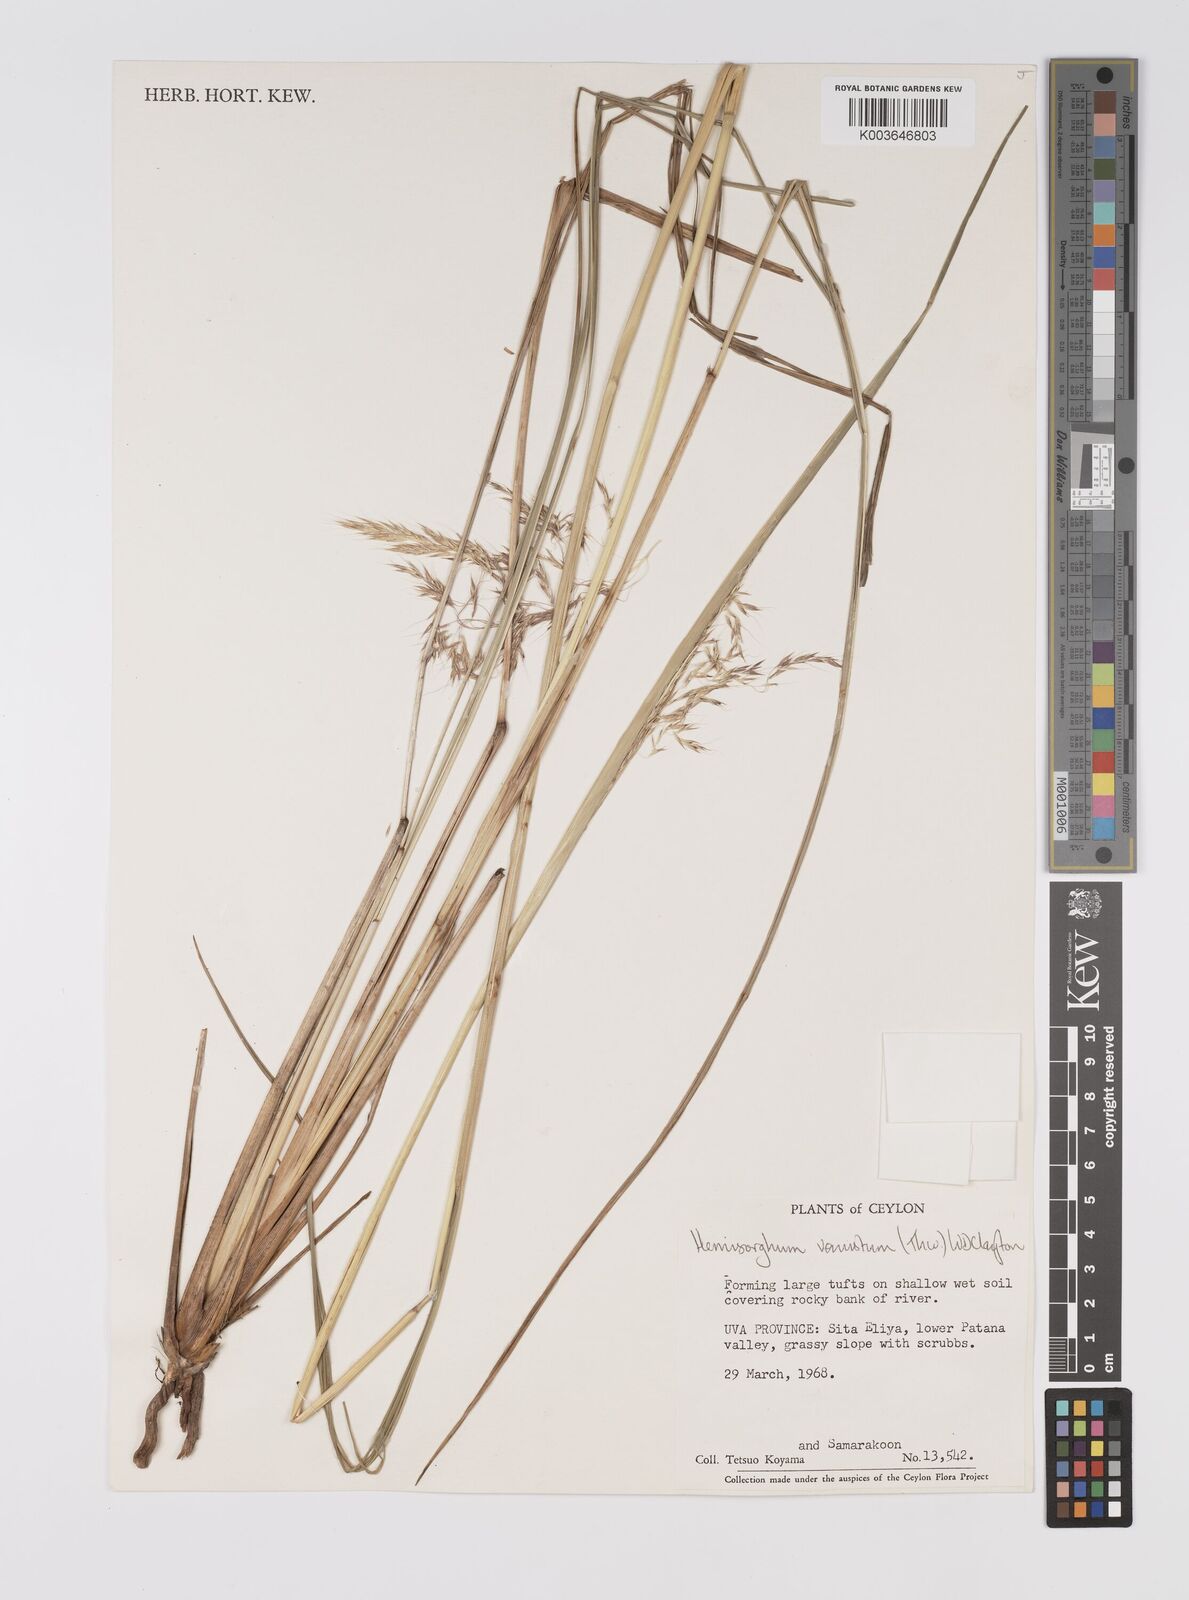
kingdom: Plantae
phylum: Tracheophyta
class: Liliopsida
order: Poales
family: Poaceae
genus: Hemisorghum
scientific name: Hemisorghum venustum
